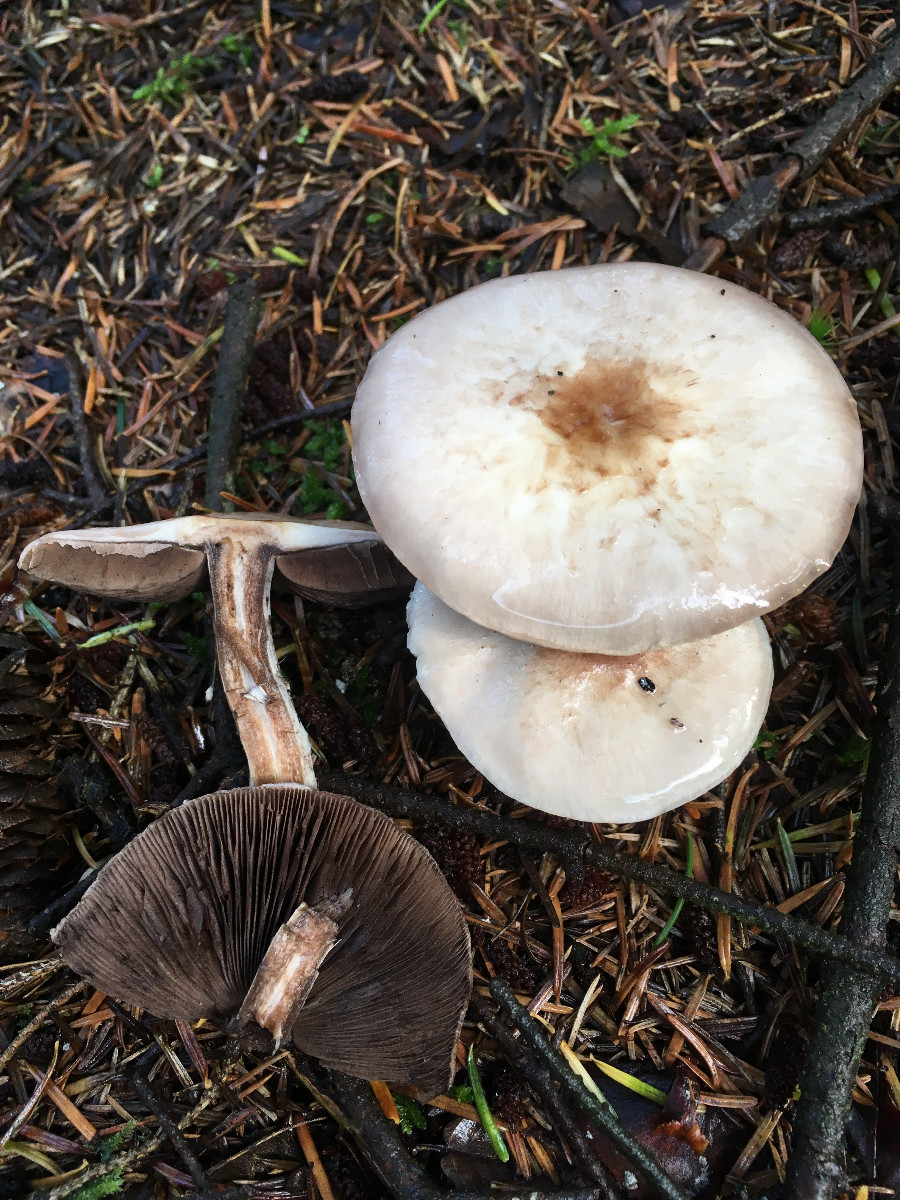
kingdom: Fungi
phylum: Basidiomycota
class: Agaricomycetes
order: Agaricales
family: Agaricaceae
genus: Agaricus
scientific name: Agaricus
